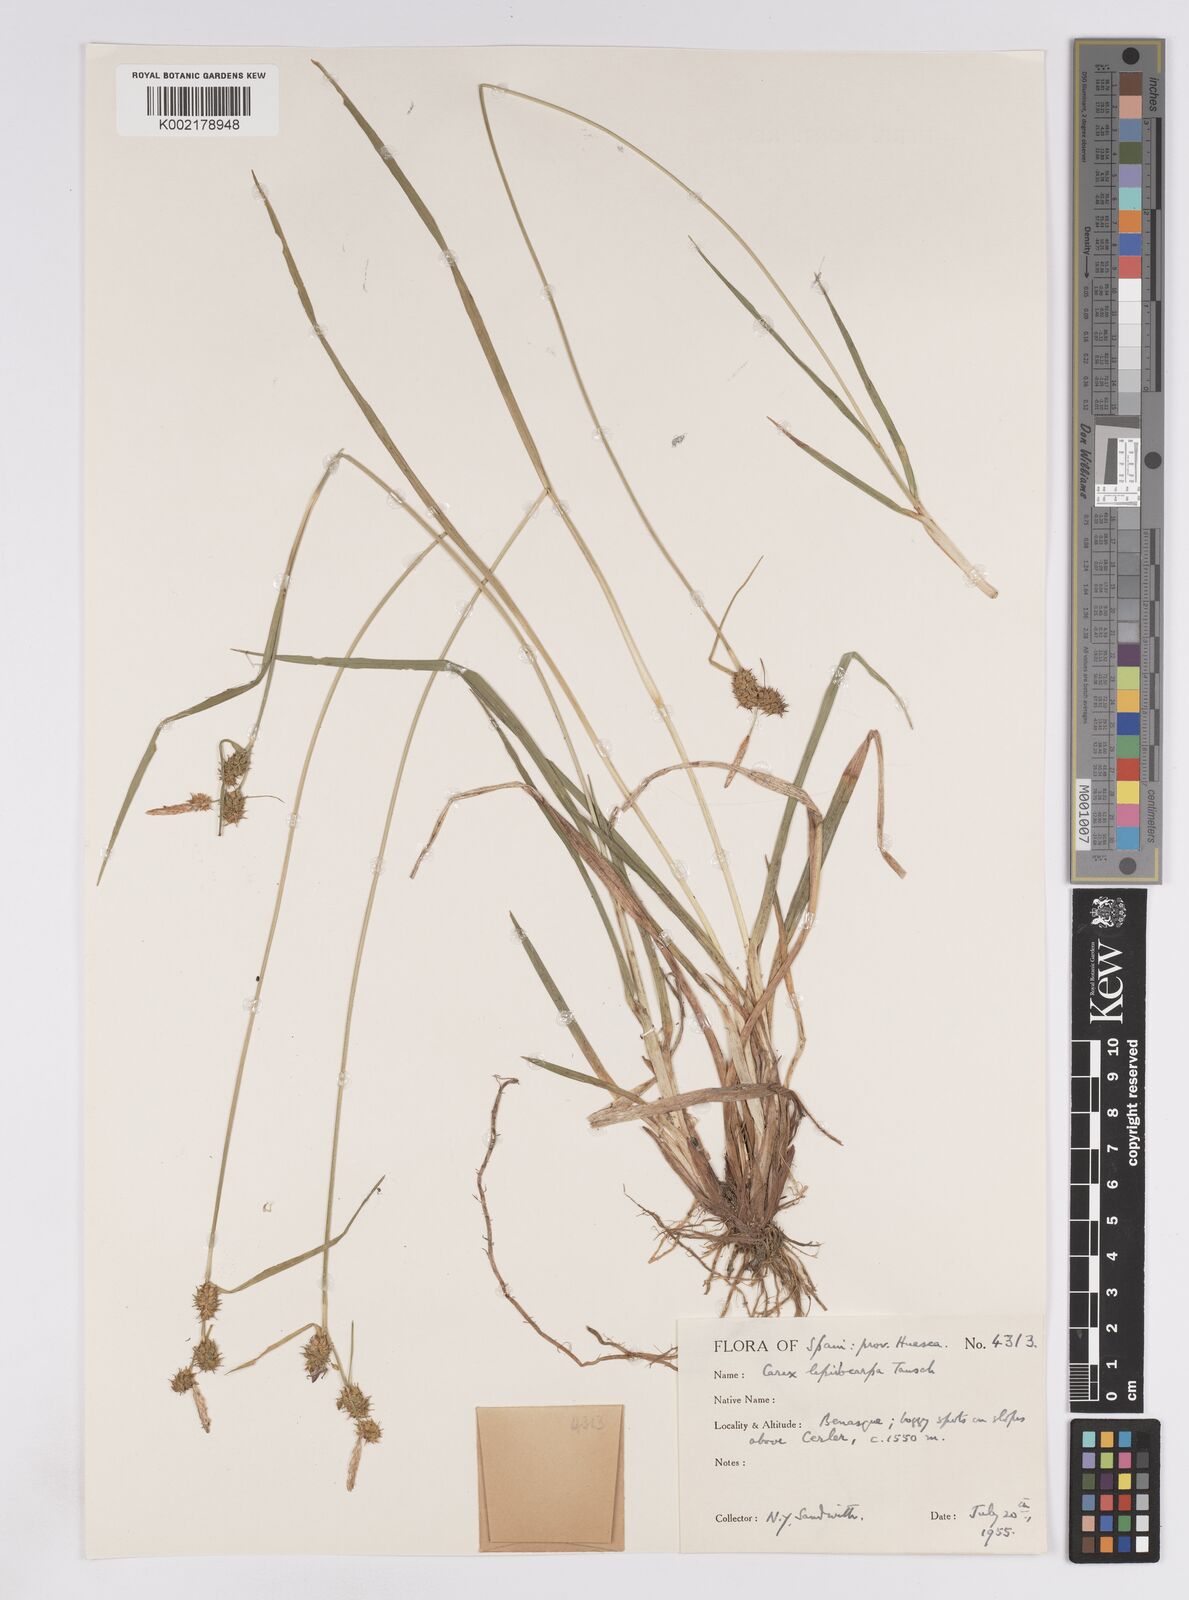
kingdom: Plantae
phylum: Tracheophyta
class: Liliopsida
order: Poales
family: Cyperaceae
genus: Carex
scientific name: Carex lepidocarpa
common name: Long-stalked yellow-sedge
